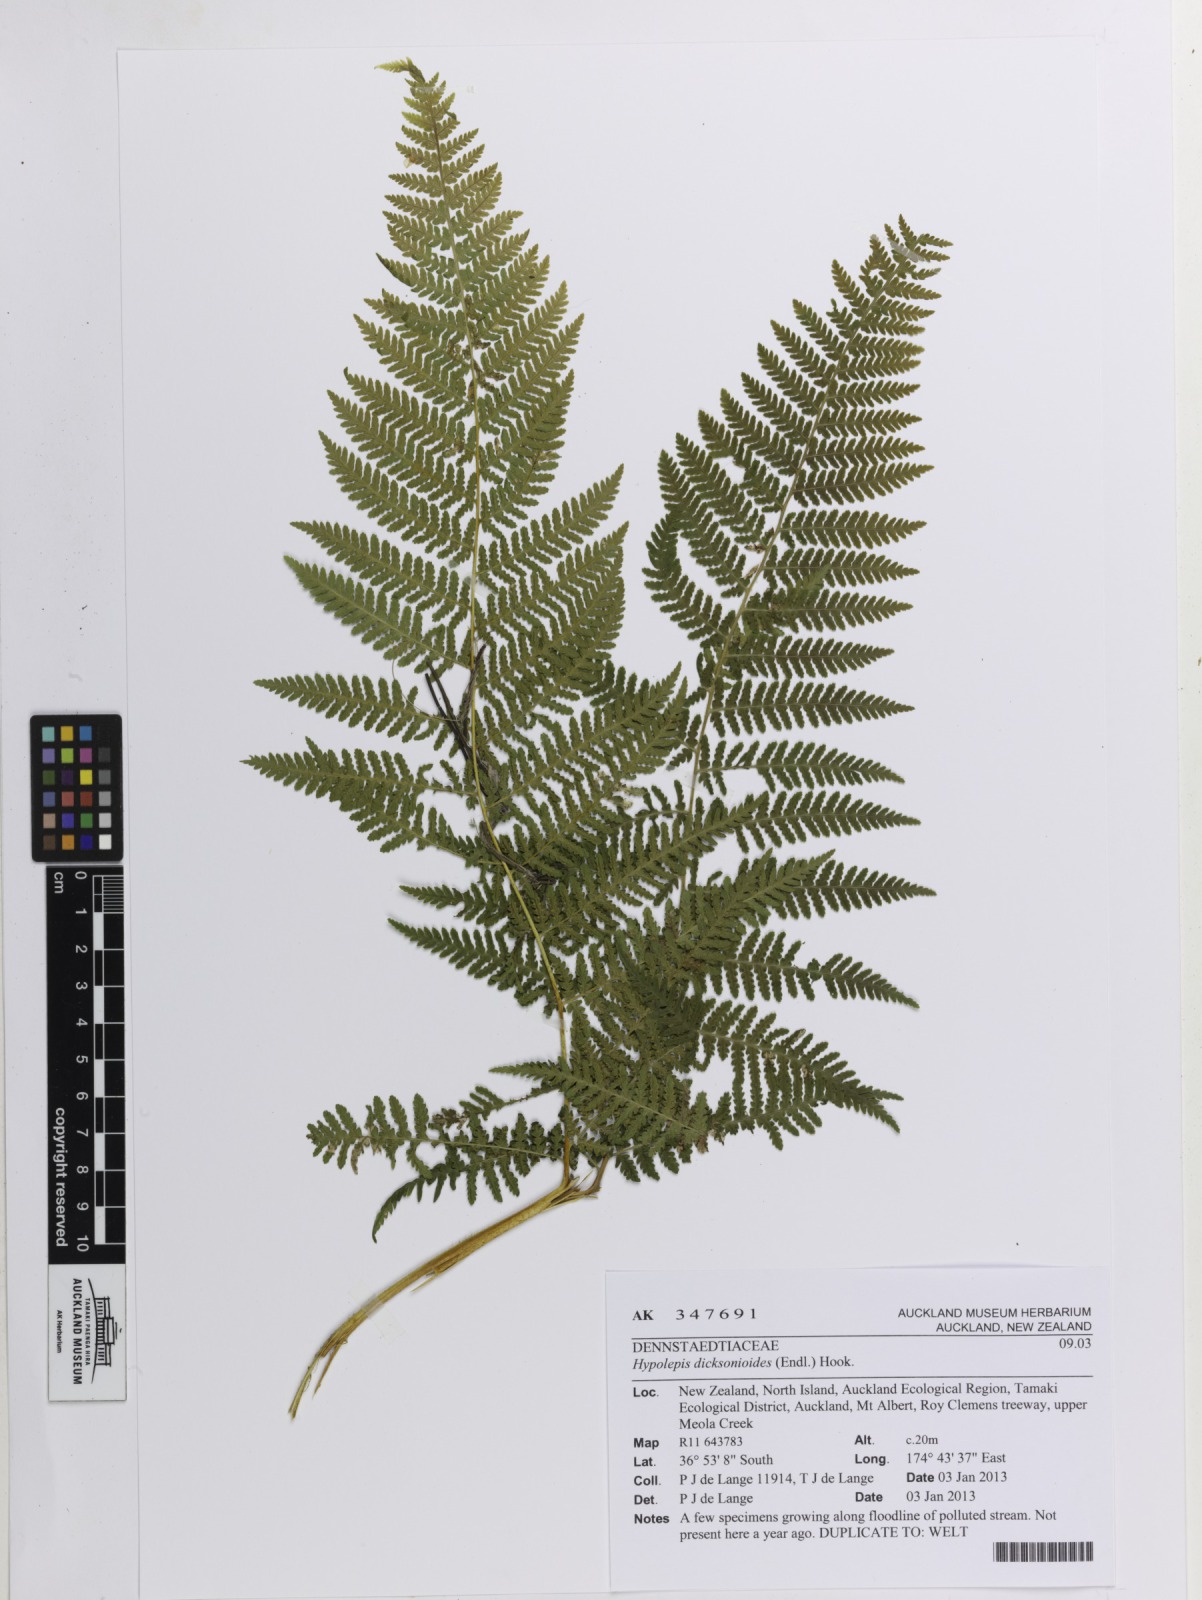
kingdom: Plantae
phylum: Tracheophyta
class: Polypodiopsida
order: Polypodiales
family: Dennstaedtiaceae
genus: Hypolepis
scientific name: Hypolepis dicksonioides
